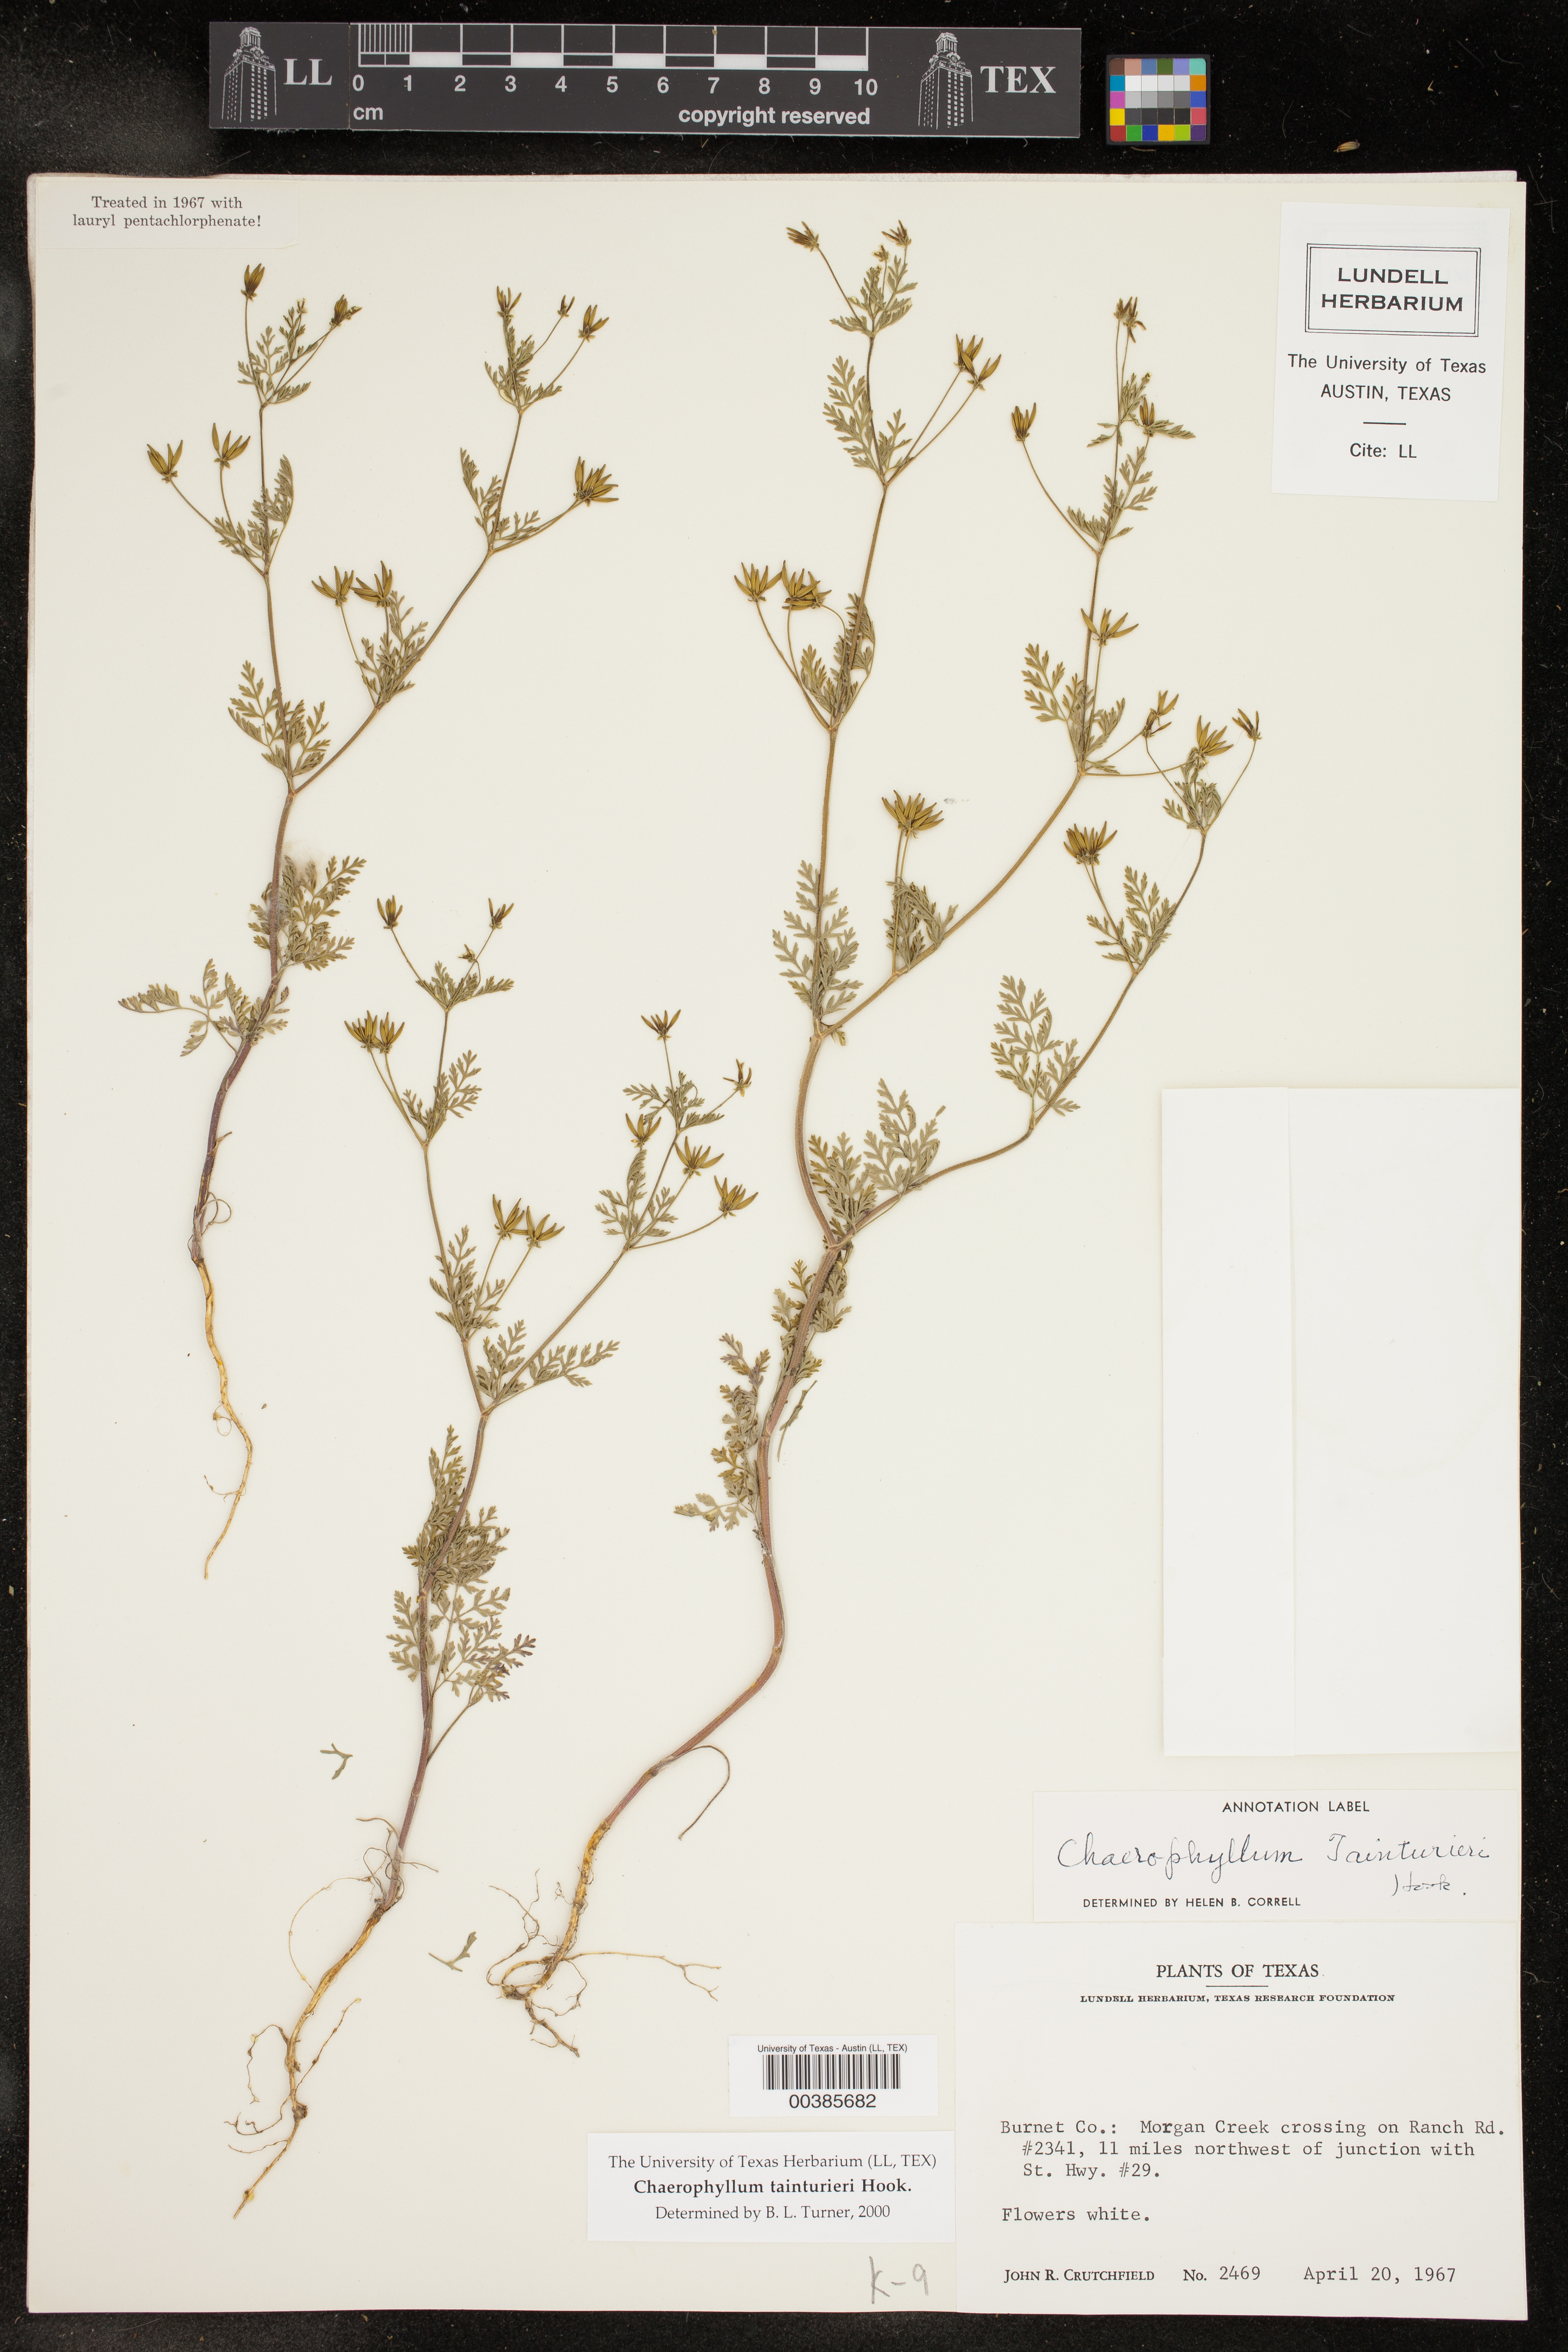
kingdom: Plantae
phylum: Tracheophyta
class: Magnoliopsida
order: Apiales
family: Apiaceae
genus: Chaerophyllum
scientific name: Chaerophyllum tainturieri
